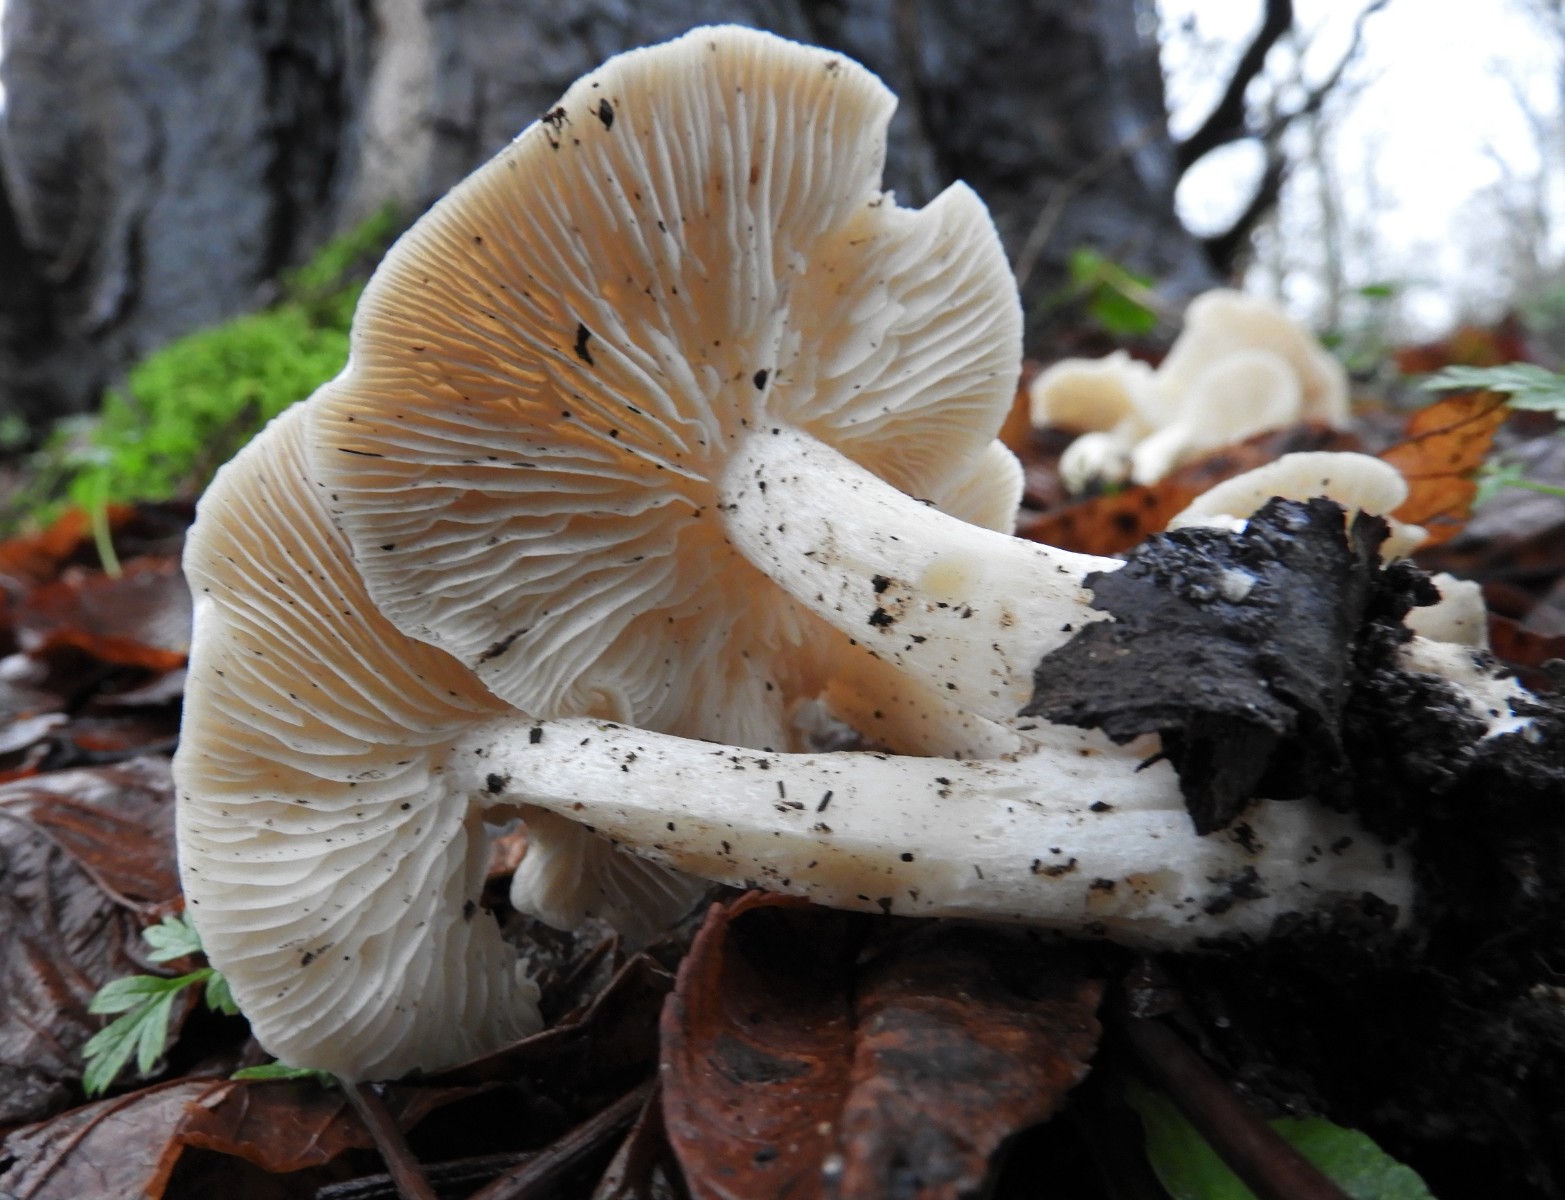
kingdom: Fungi
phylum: Basidiomycota
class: Agaricomycetes
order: Agaricales
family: Tricholomataceae
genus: Leucocybe
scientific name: Leucocybe connata
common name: knippe-tragthat
